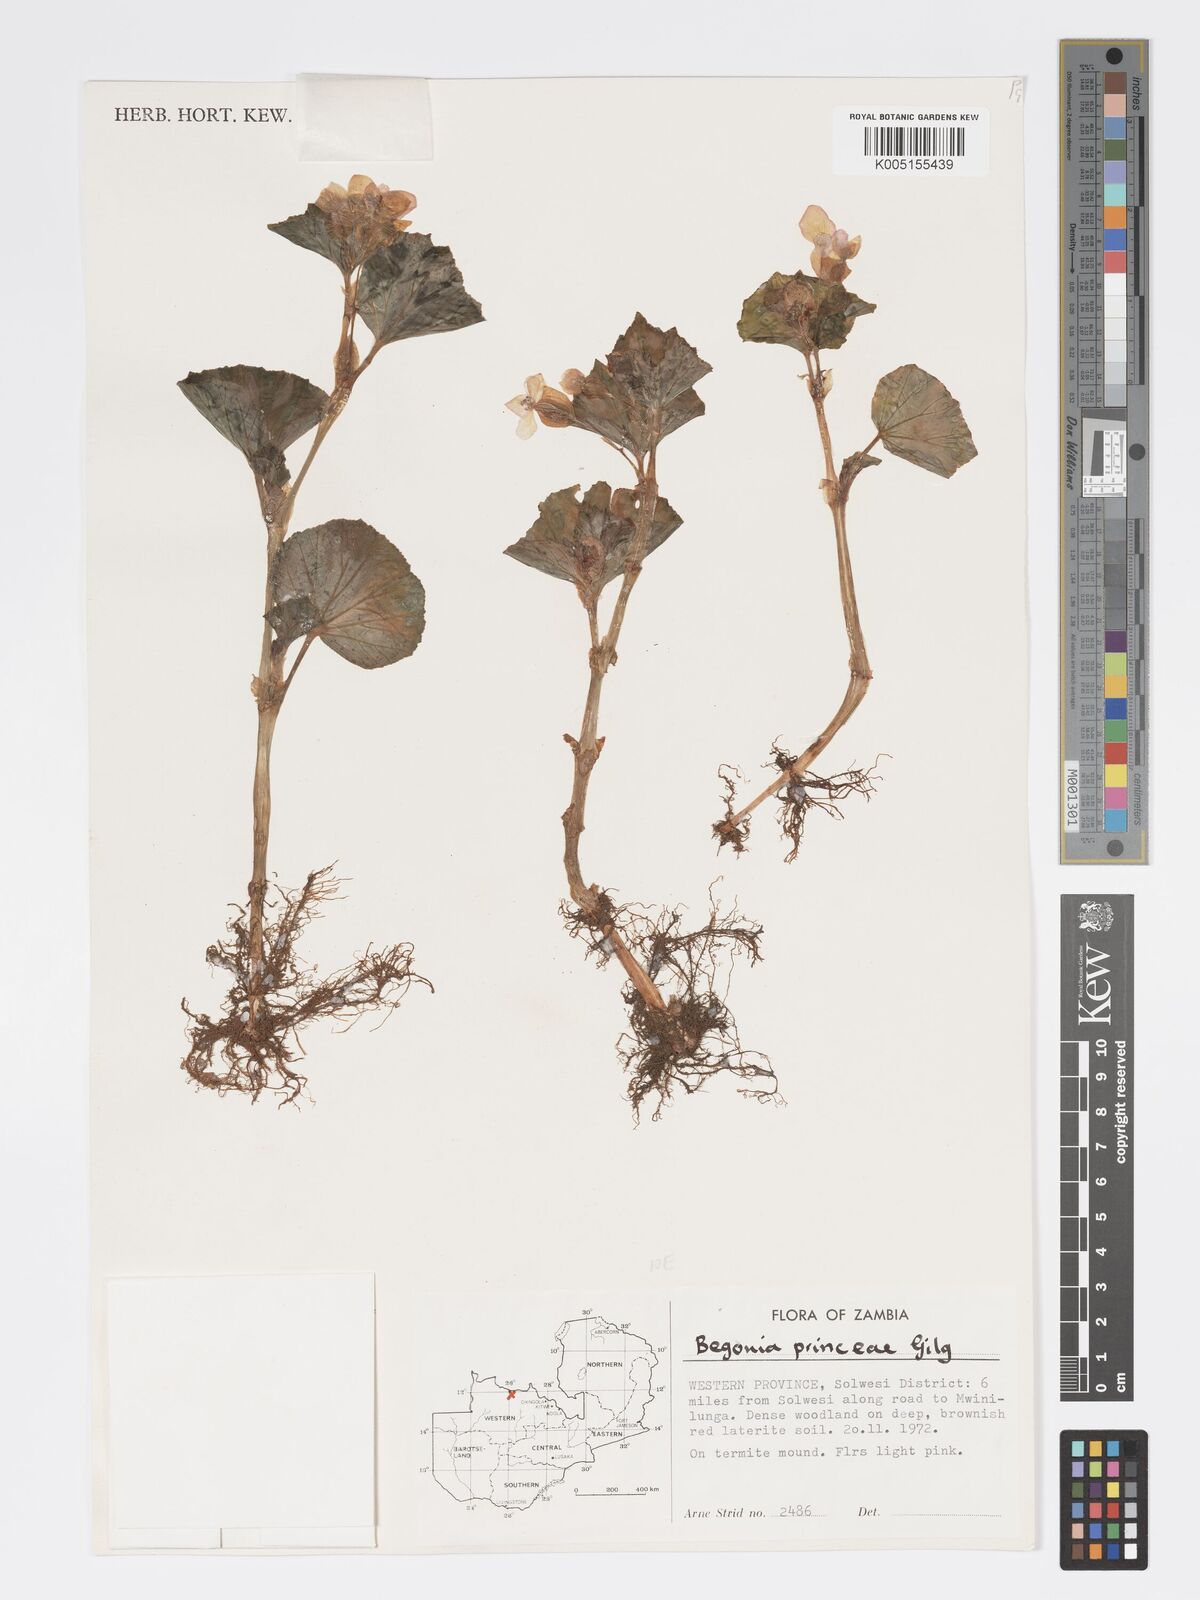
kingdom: Plantae
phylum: Tracheophyta
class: Magnoliopsida
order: Cucurbitales
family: Begoniaceae
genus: Begonia
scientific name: Begonia princeae
